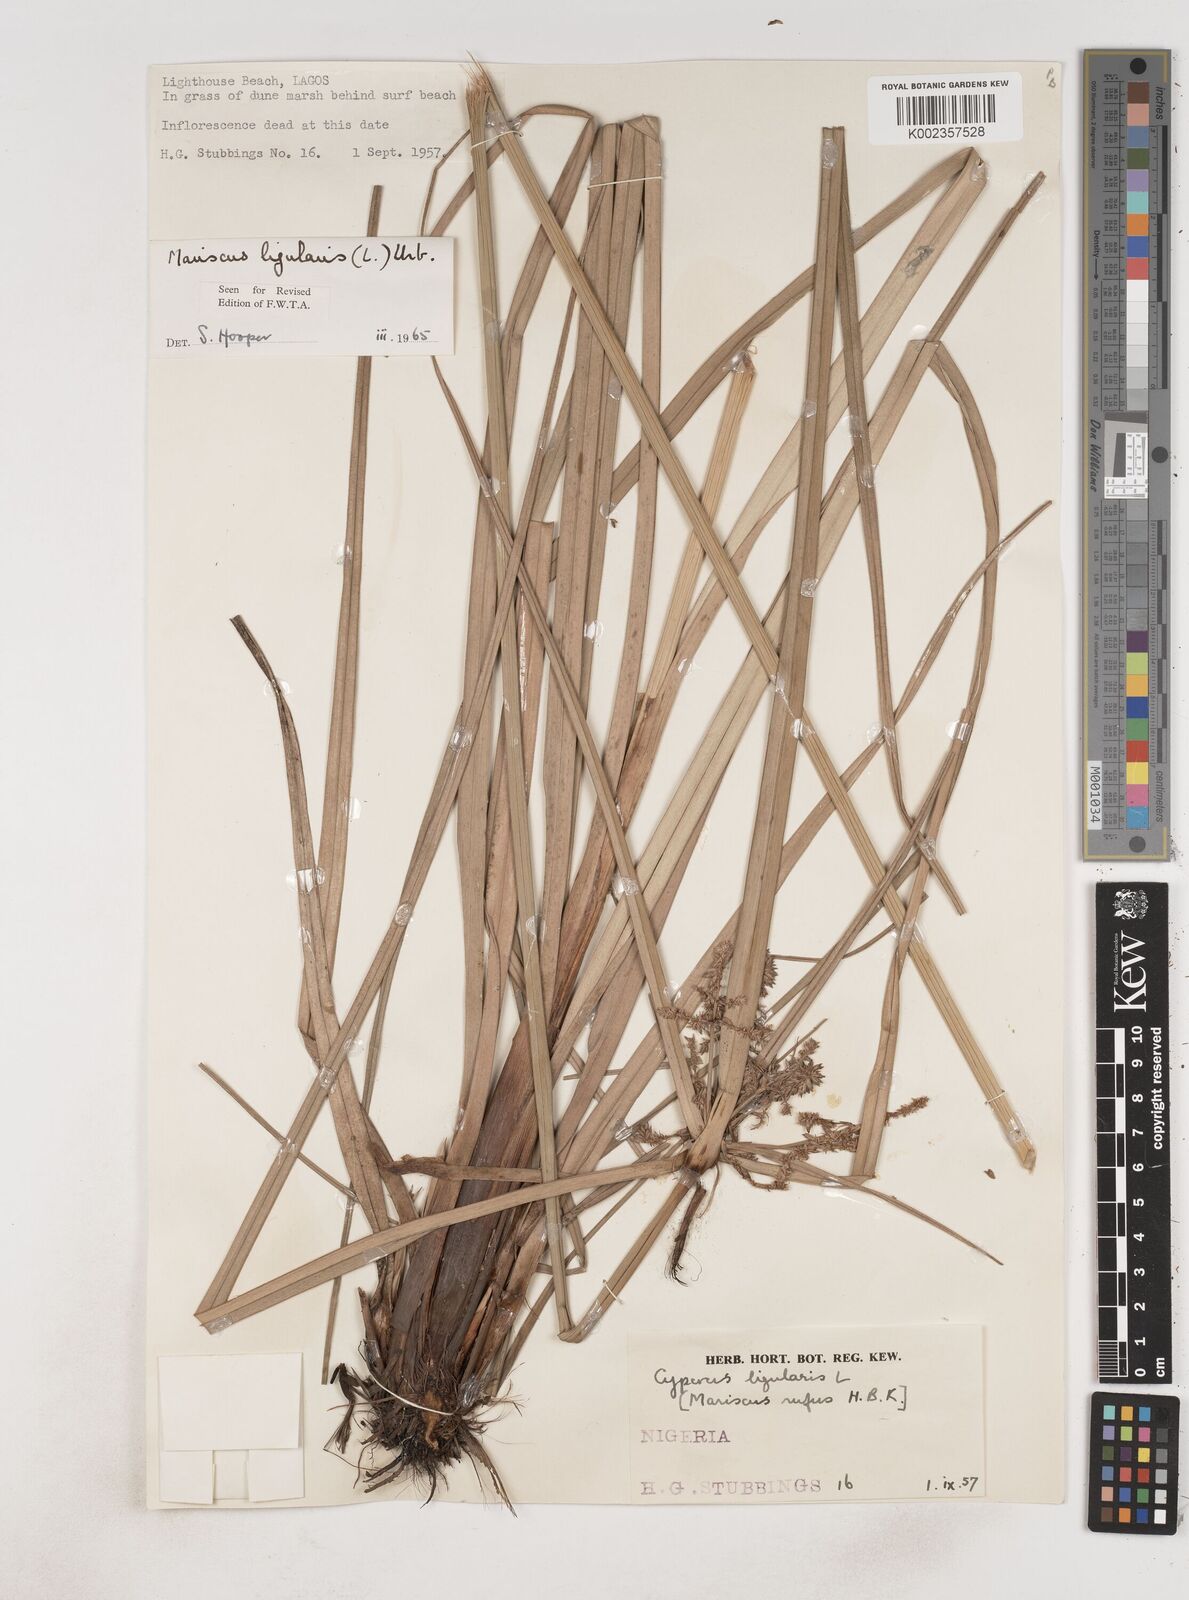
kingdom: Plantae
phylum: Tracheophyta
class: Liliopsida
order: Poales
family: Cyperaceae
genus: Cyperus
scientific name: Cyperus ligularis
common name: Swamp flat sedge
